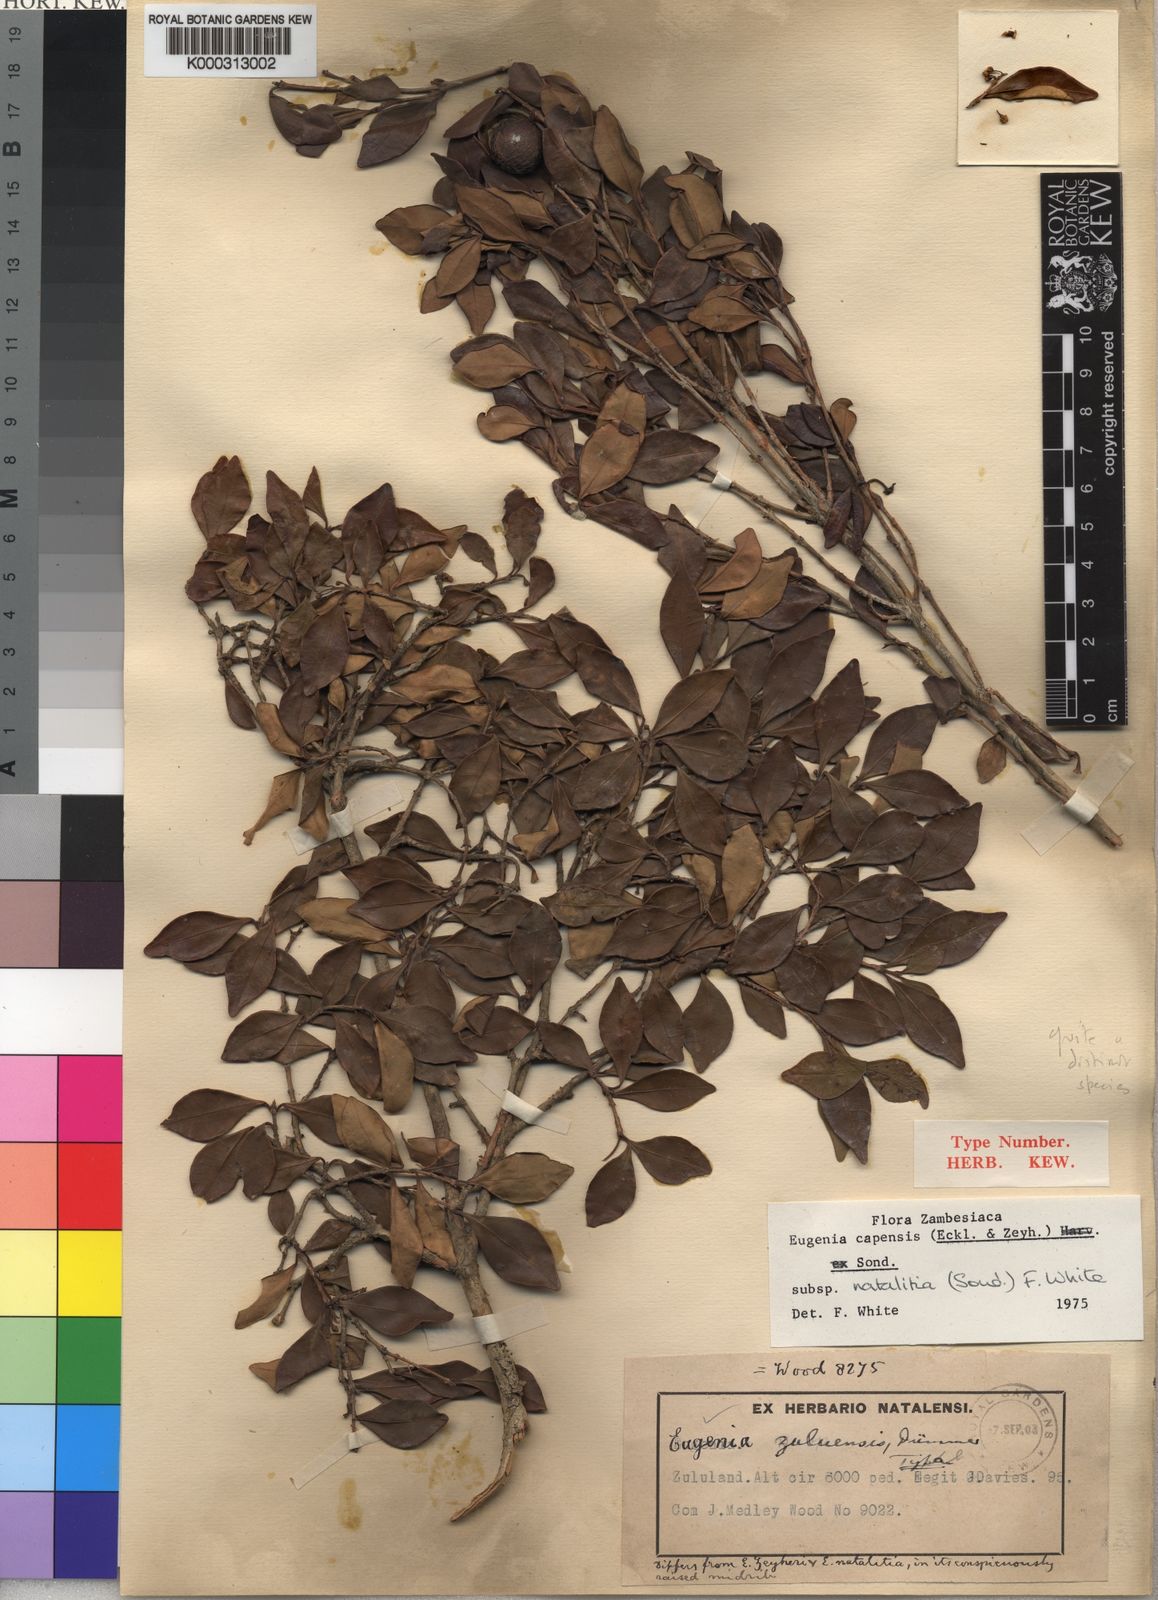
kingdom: Plantae
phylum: Tracheophyta
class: Magnoliopsida
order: Myrtales
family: Myrtaceae
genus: Eugenia
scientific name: Eugenia natalitia
